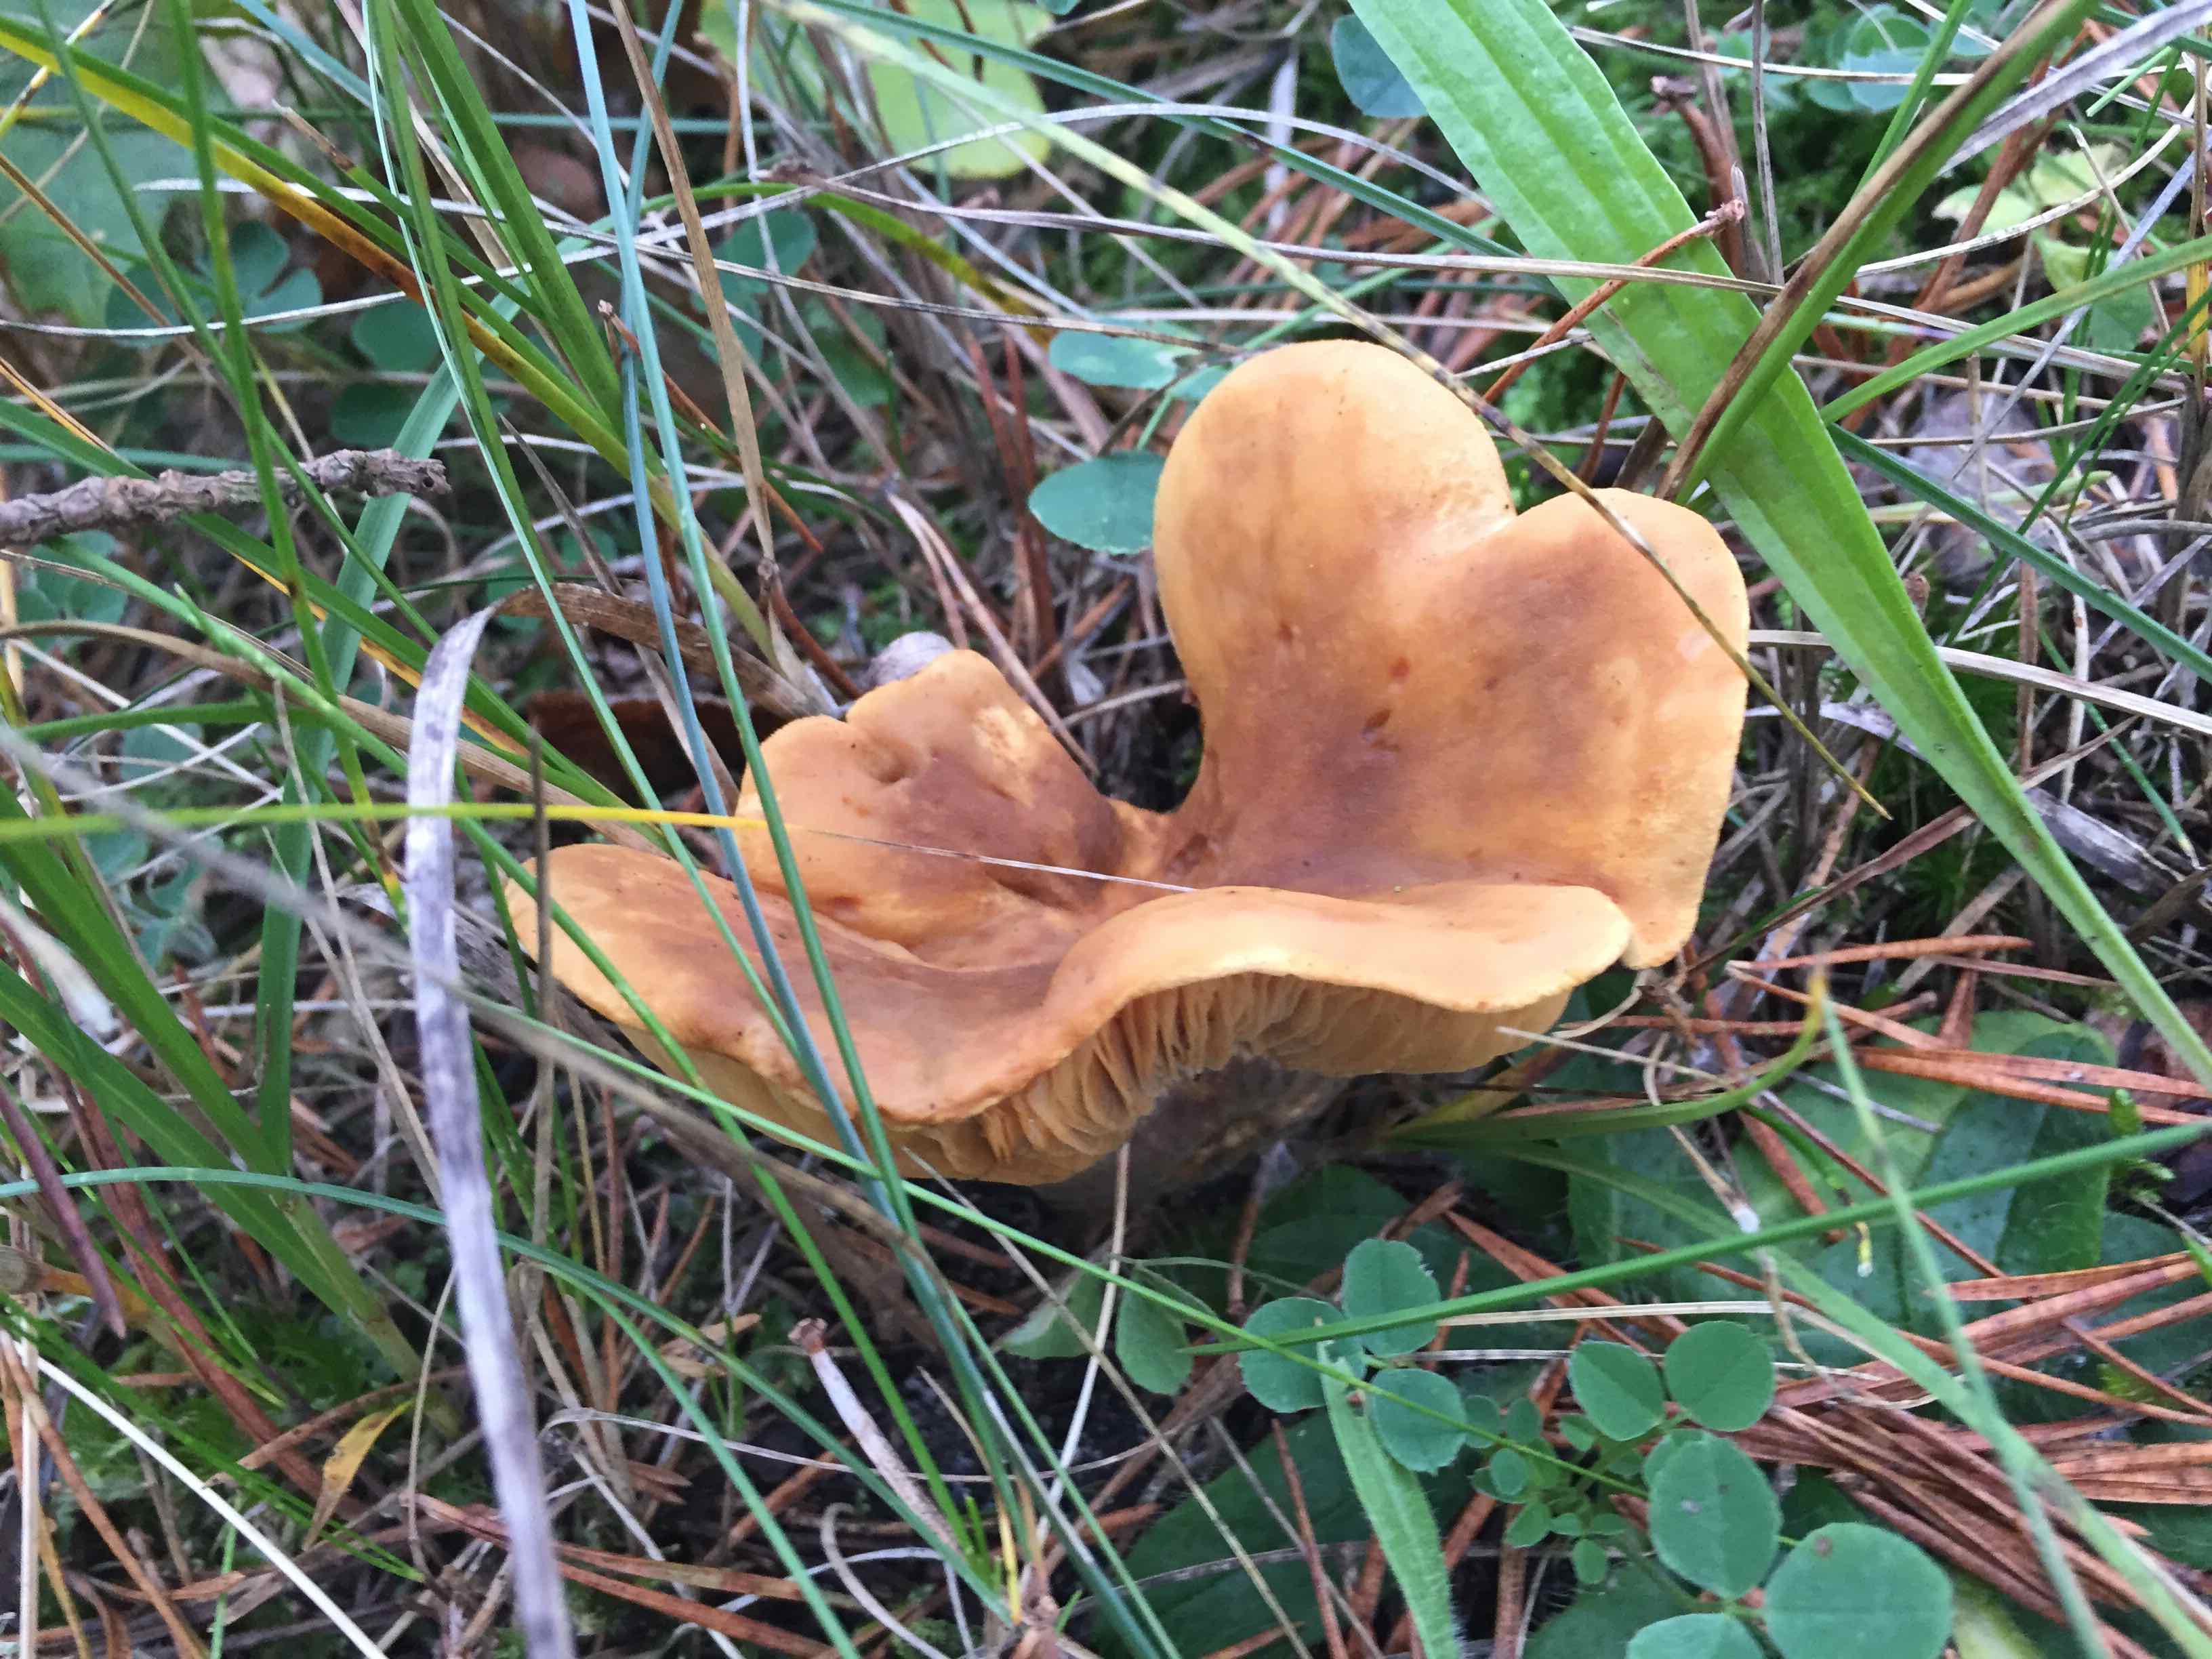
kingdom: Fungi
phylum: Basidiomycota
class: Agaricomycetes
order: Russulales
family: Russulaceae
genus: Lactifluus
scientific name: Lactifluus
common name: mælkehat
